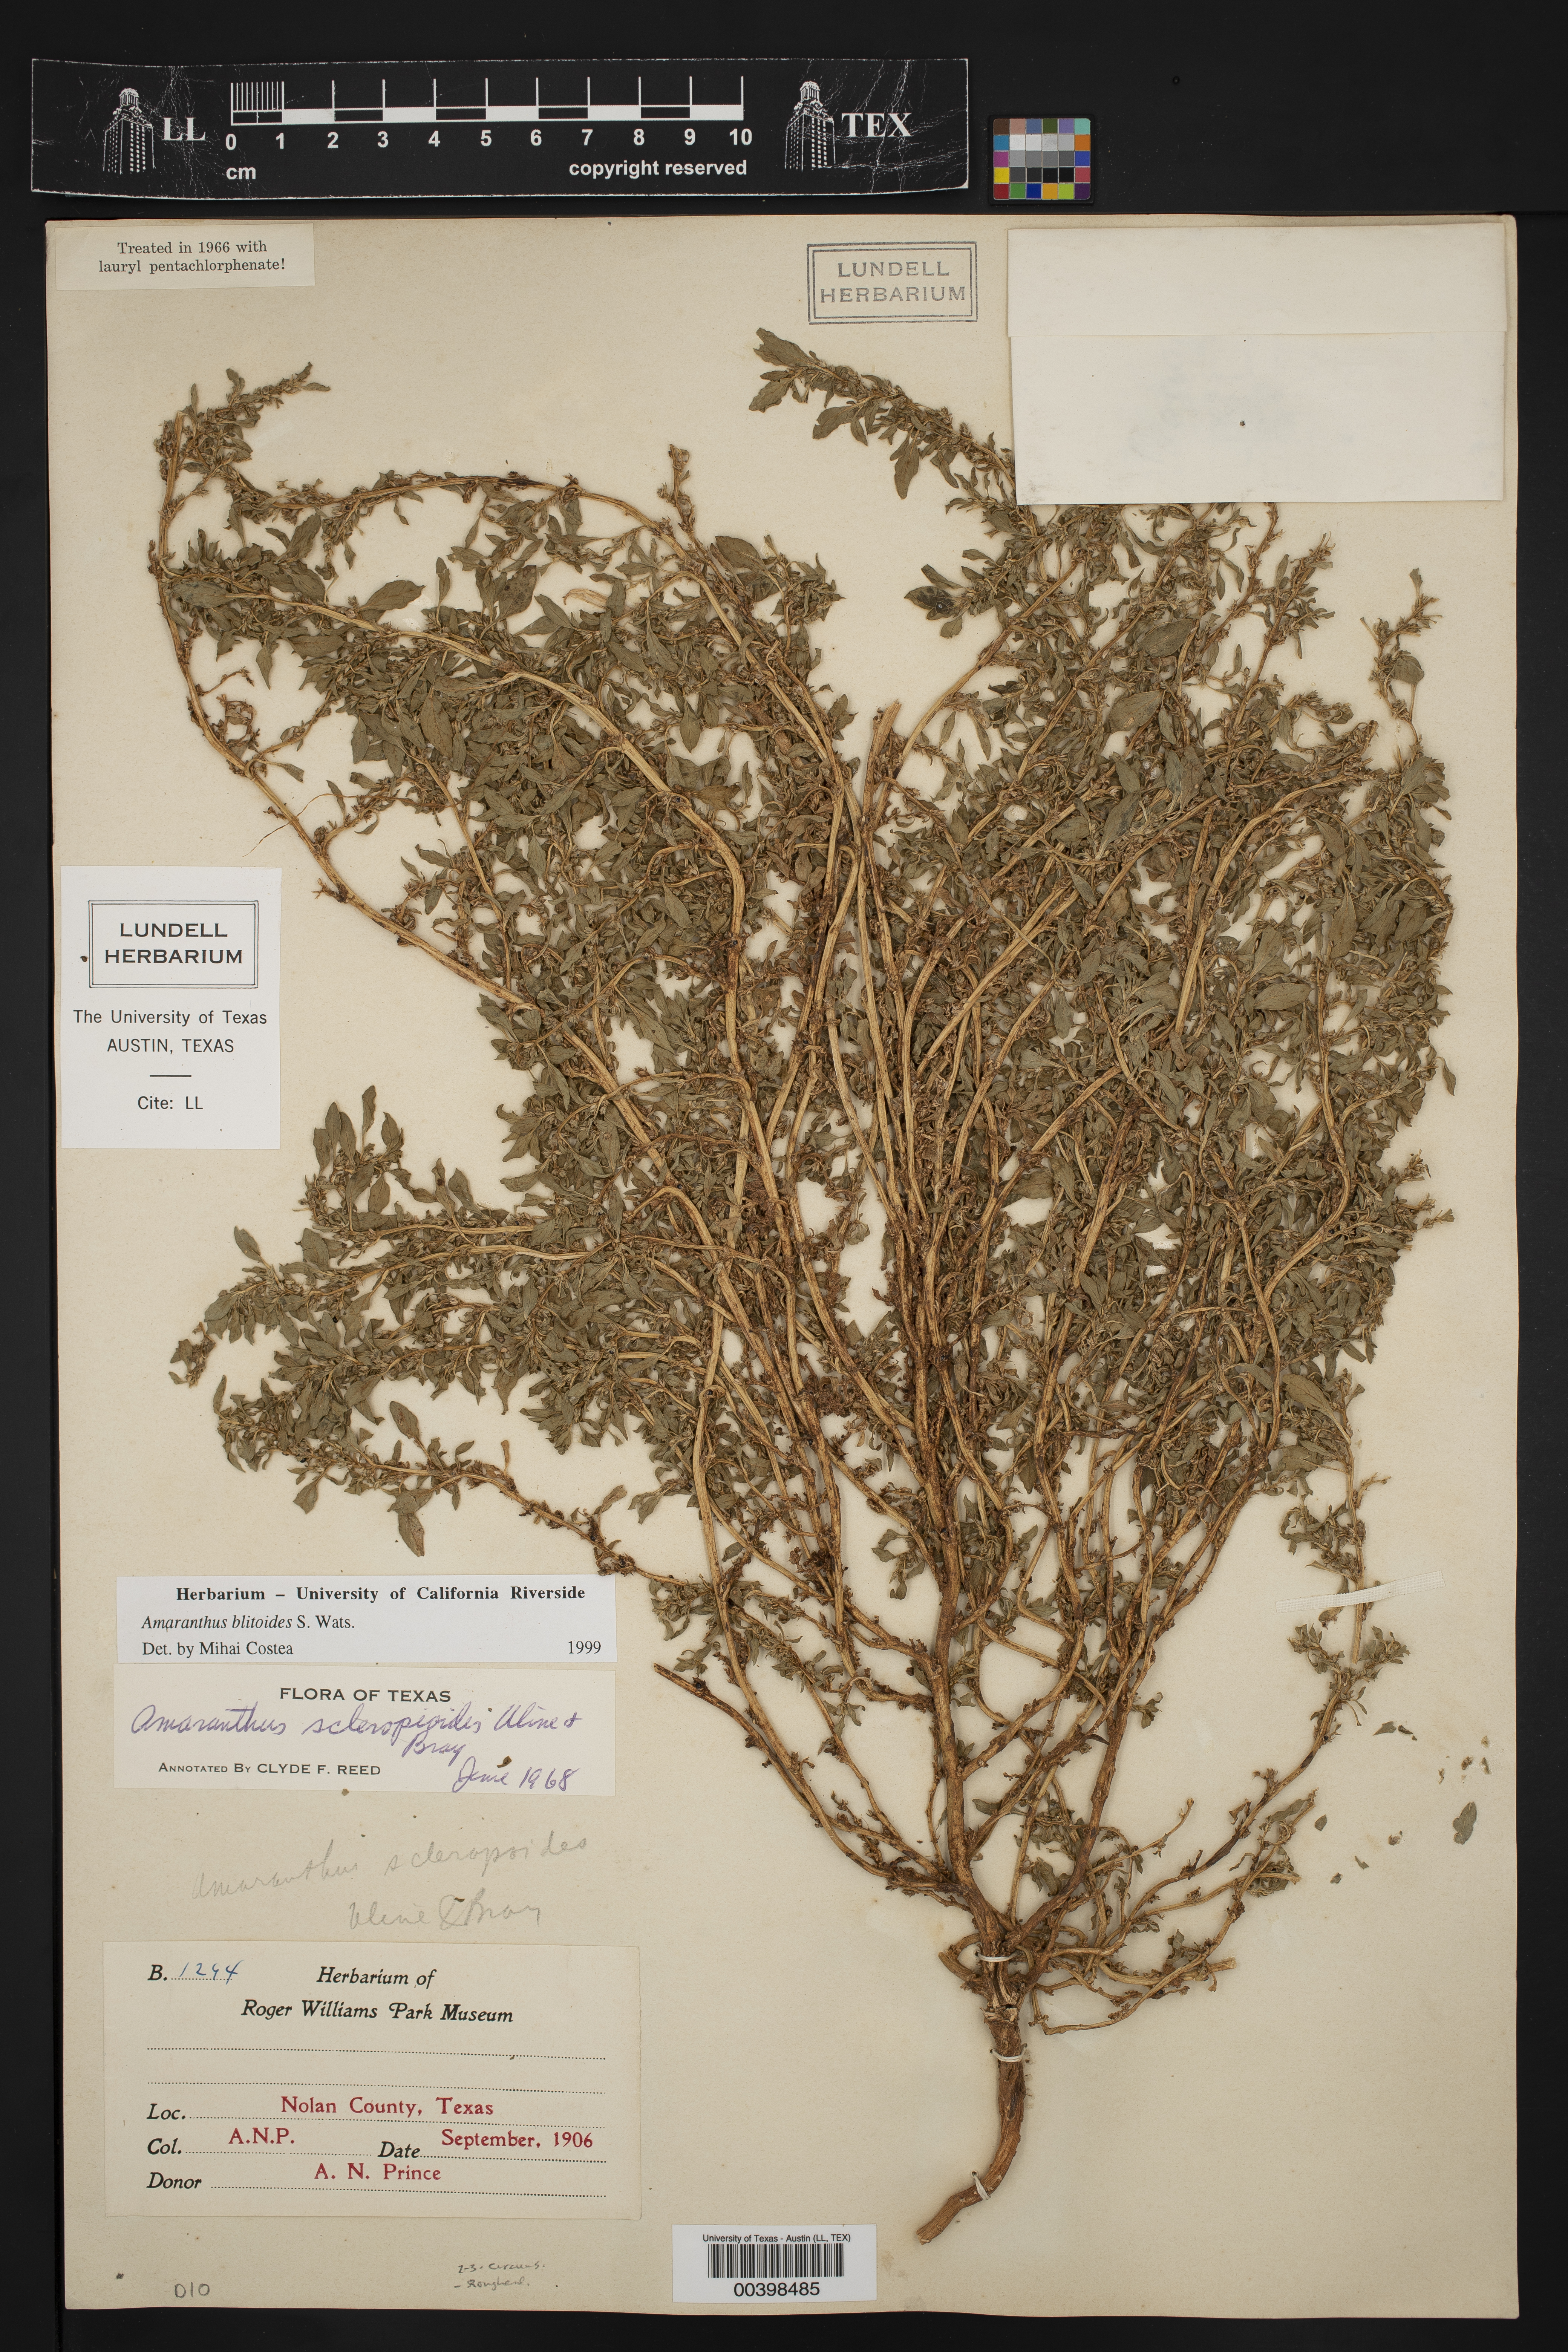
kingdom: Plantae
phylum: Tracheophyta
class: Magnoliopsida
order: Caryophyllales
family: Amaranthaceae
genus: Amaranthus
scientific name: Amaranthus blitoides
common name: Prostrate pigweed
